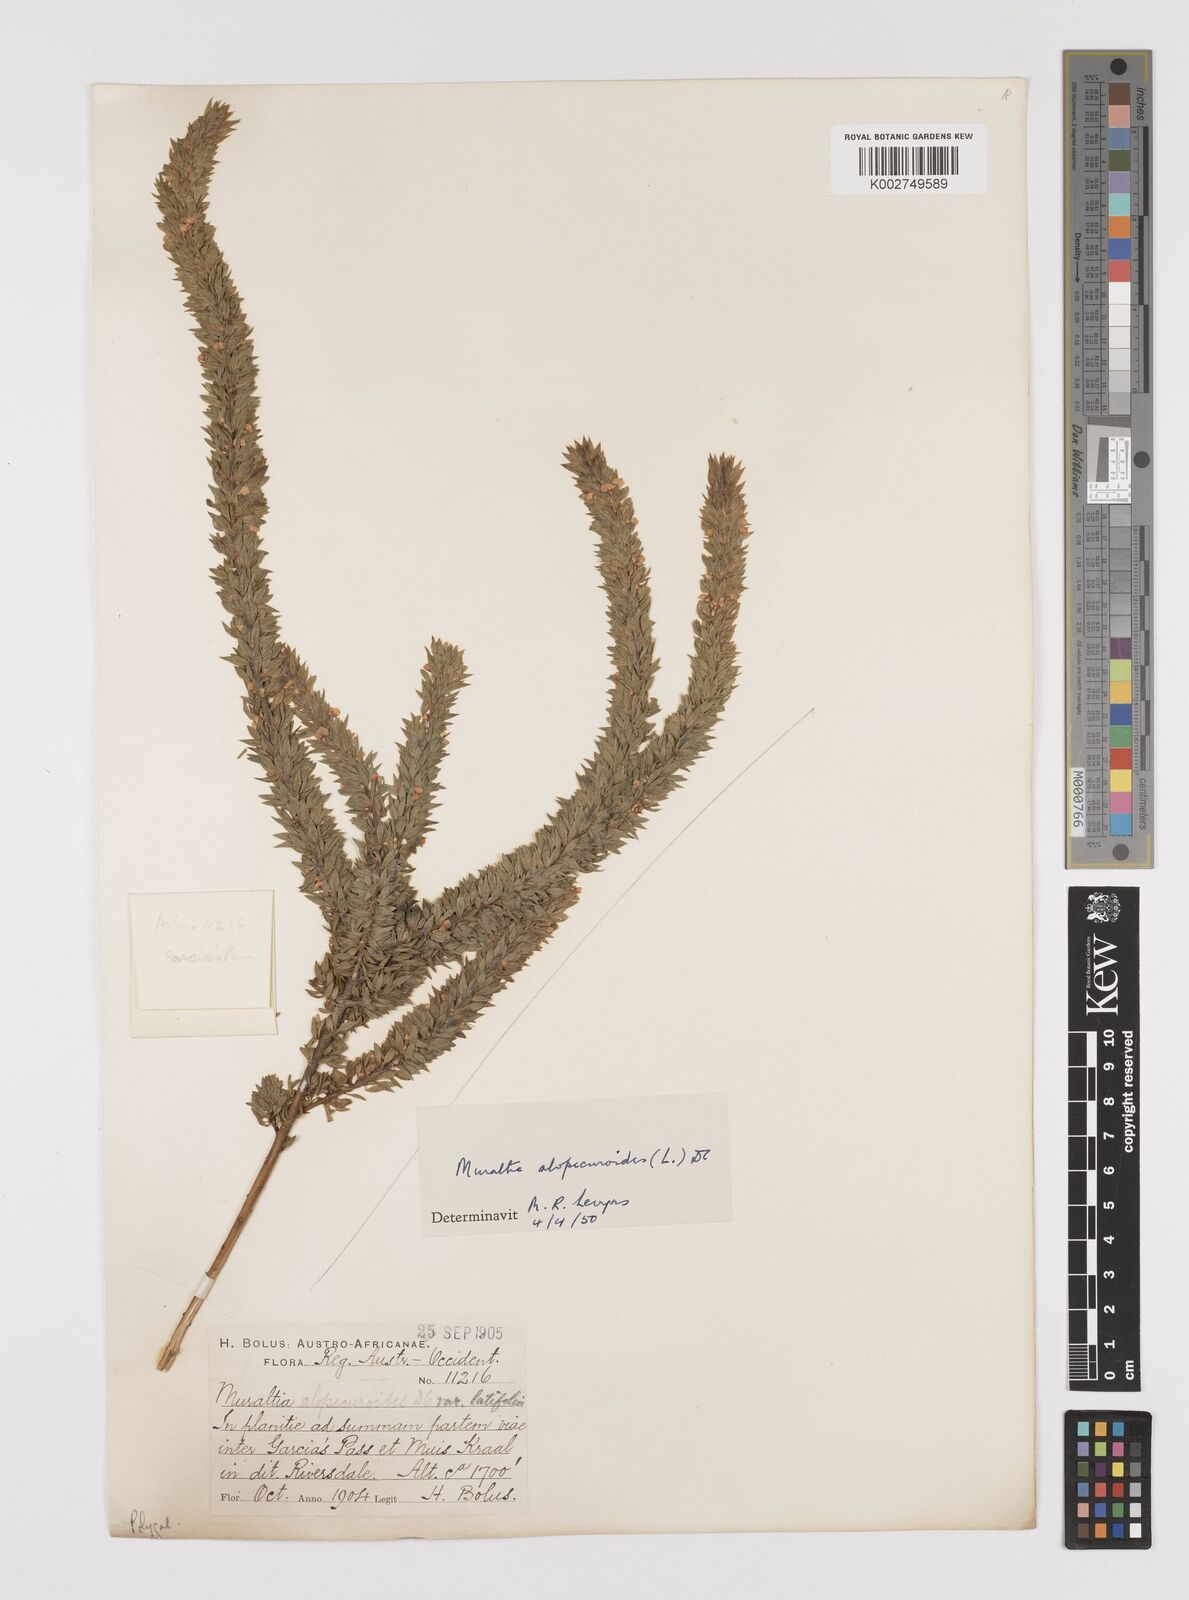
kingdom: Plantae
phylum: Tracheophyta
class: Magnoliopsida
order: Fabales
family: Polygalaceae
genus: Muraltia
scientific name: Muraltia alopecuroides
